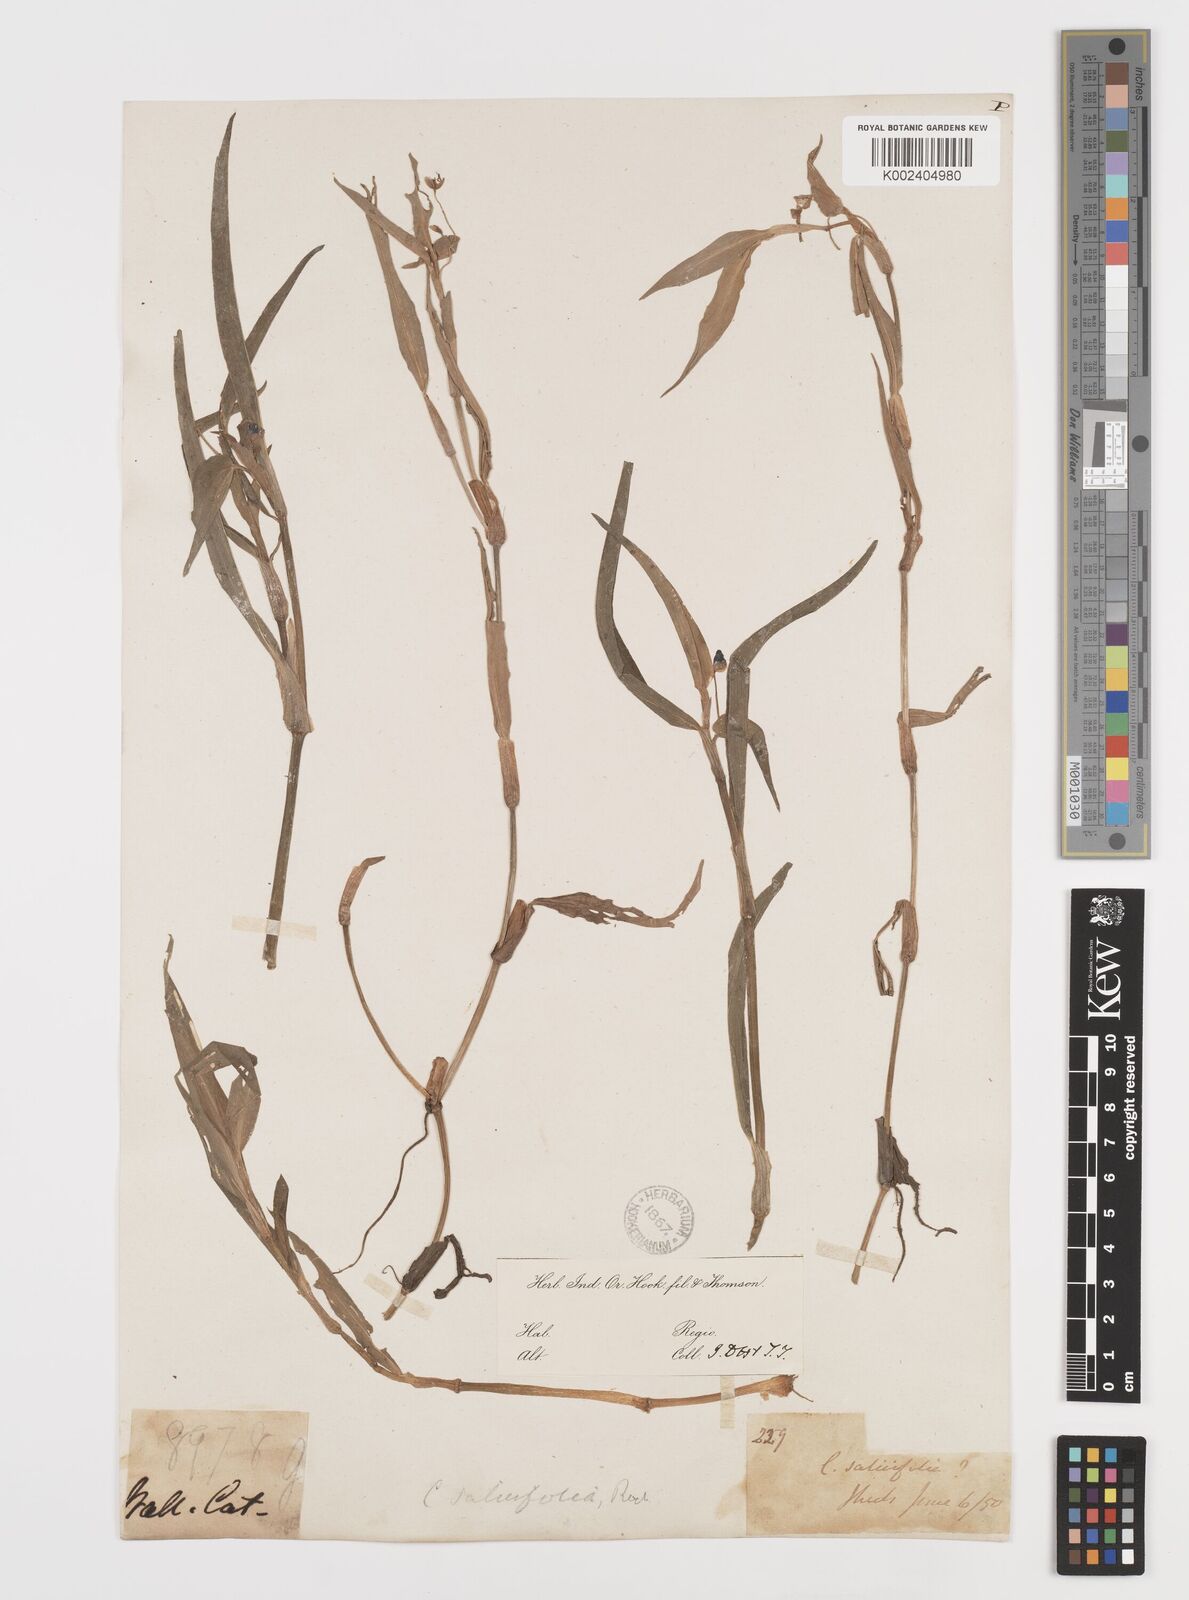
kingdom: Plantae
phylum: Tracheophyta
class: Liliopsida
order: Commelinales
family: Commelinaceae
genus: Commelina
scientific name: Commelina undulata
